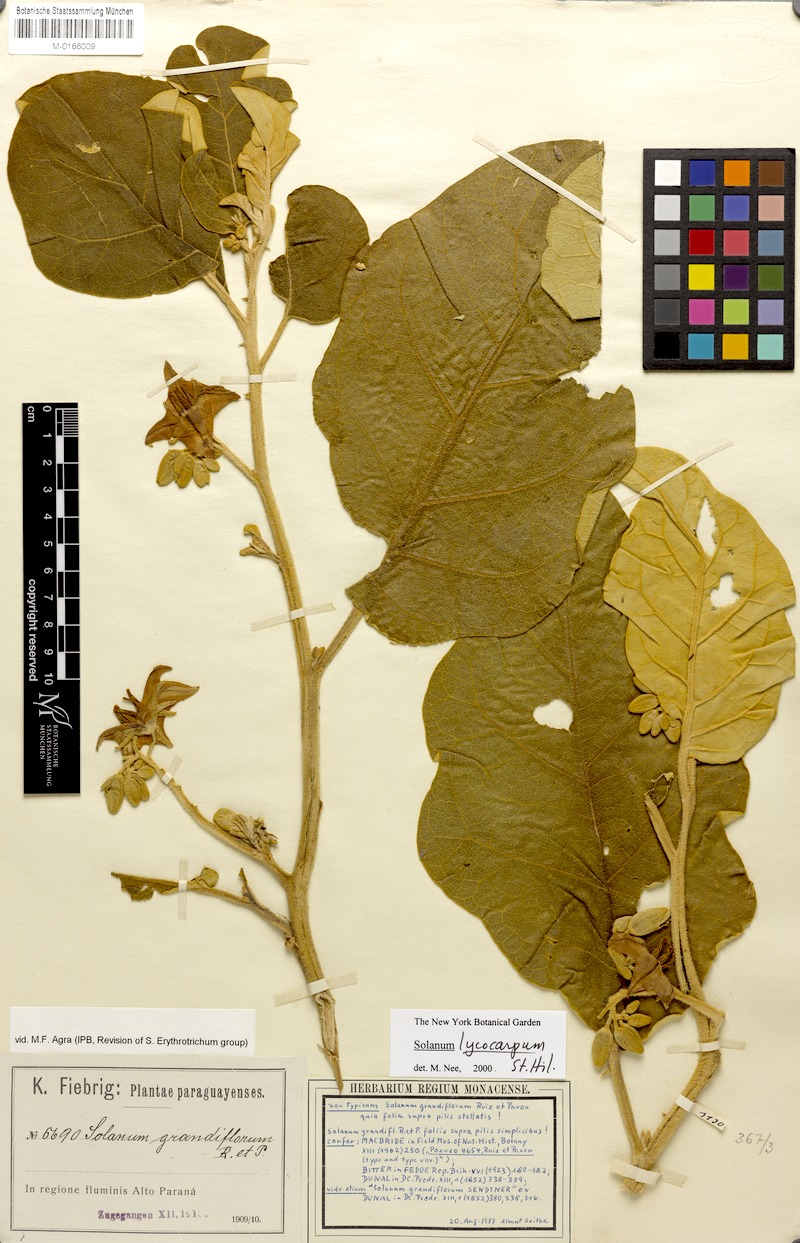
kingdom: Plantae
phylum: Tracheophyta
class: Magnoliopsida
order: Solanales
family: Solanaceae
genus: Solanum
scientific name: Solanum lycocarpum
